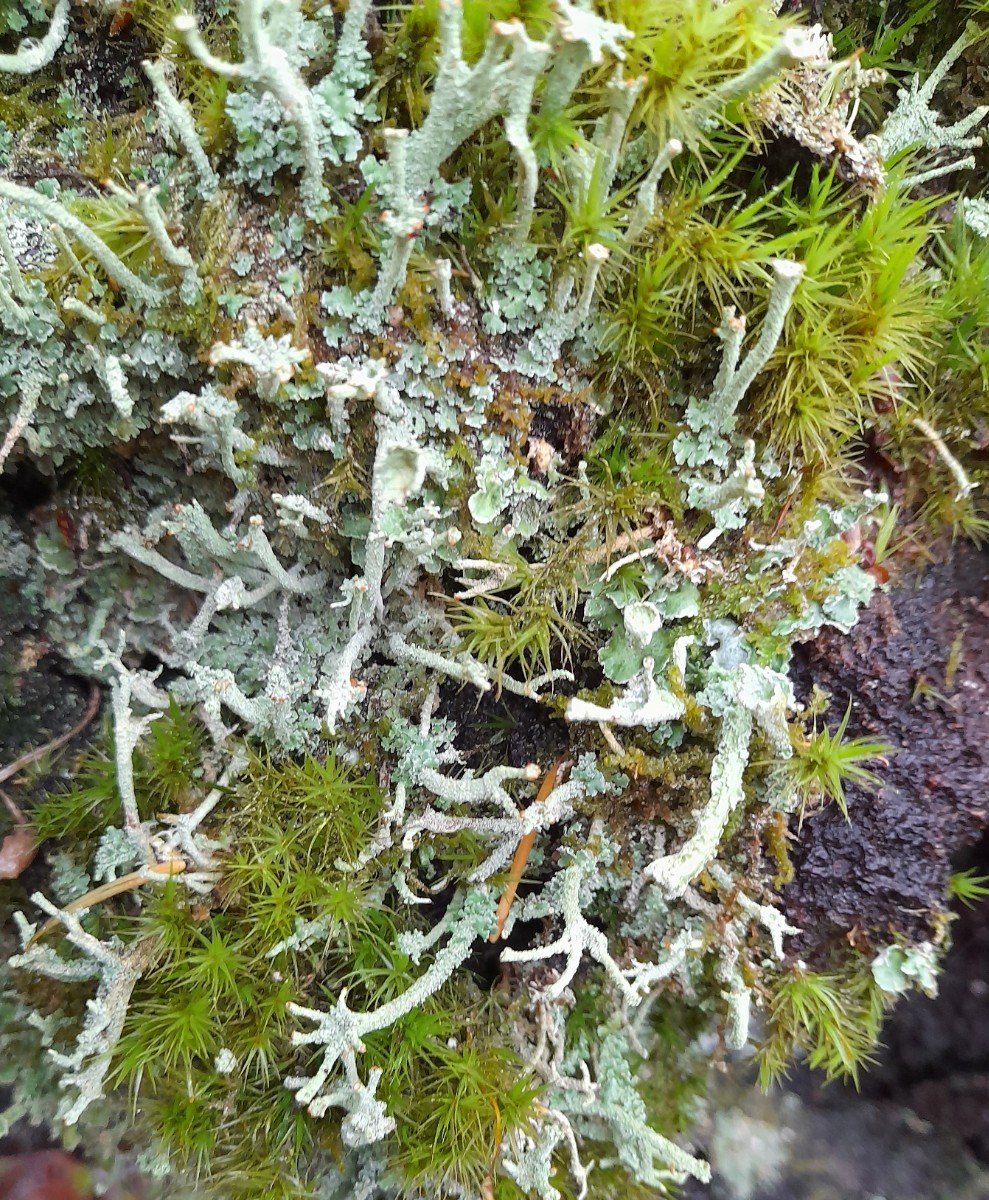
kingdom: Fungi
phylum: Ascomycota
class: Lecanoromycetes
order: Lecanorales
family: Cladoniaceae
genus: Cladonia
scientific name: Cladonia polydactyla
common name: vifte-bægerlav
